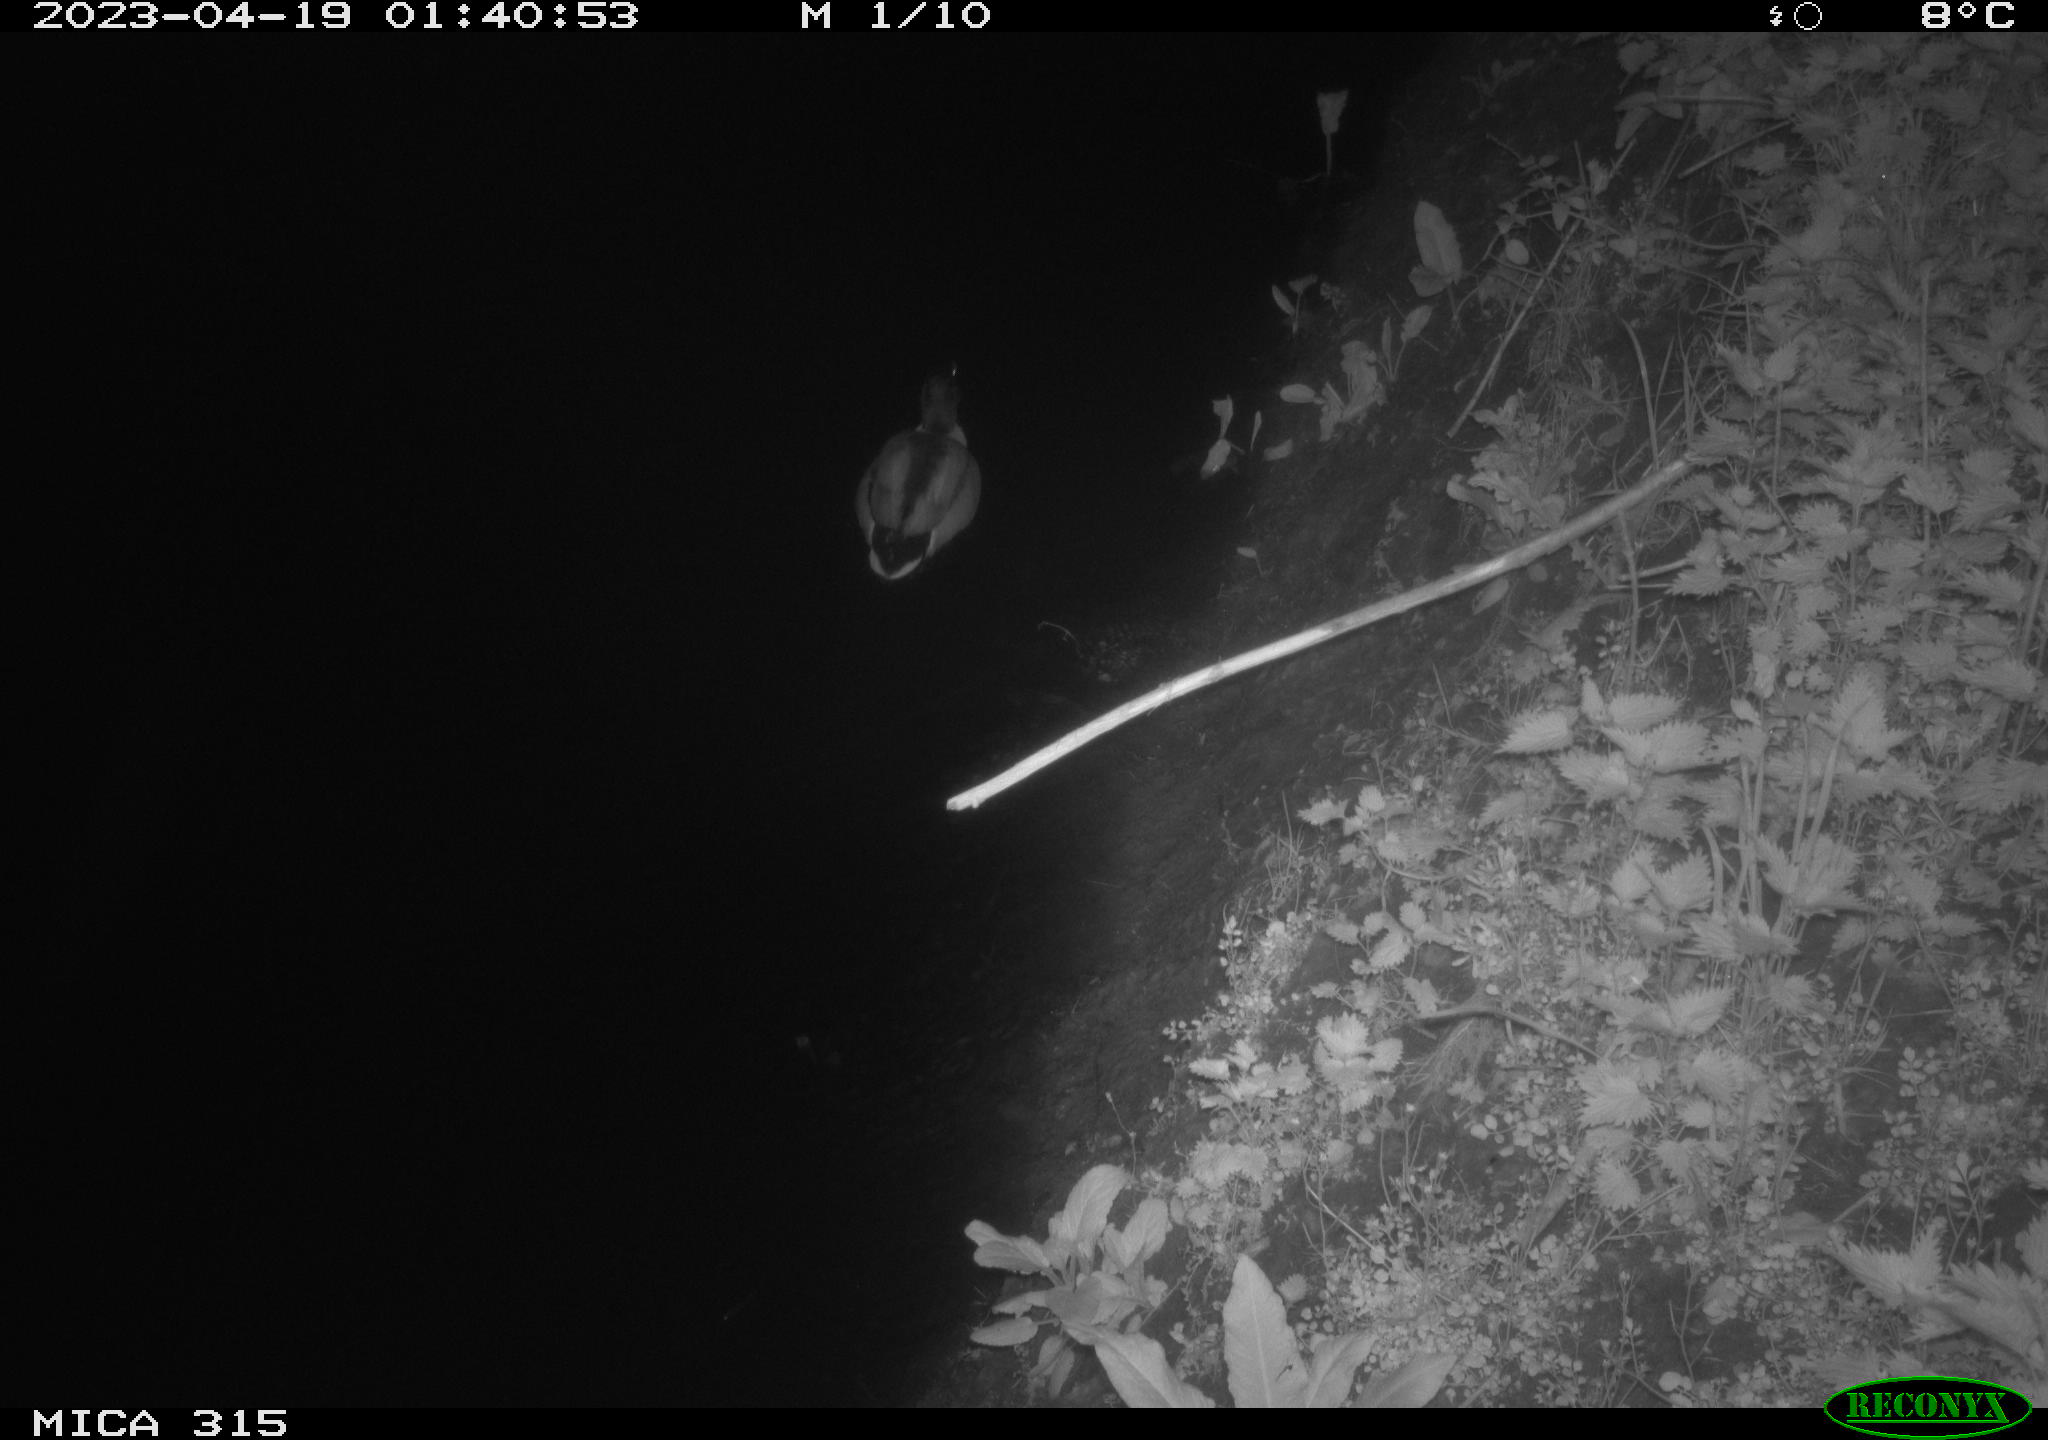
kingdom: Animalia
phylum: Chordata
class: Aves
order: Anseriformes
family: Anatidae
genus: Anas
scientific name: Anas
